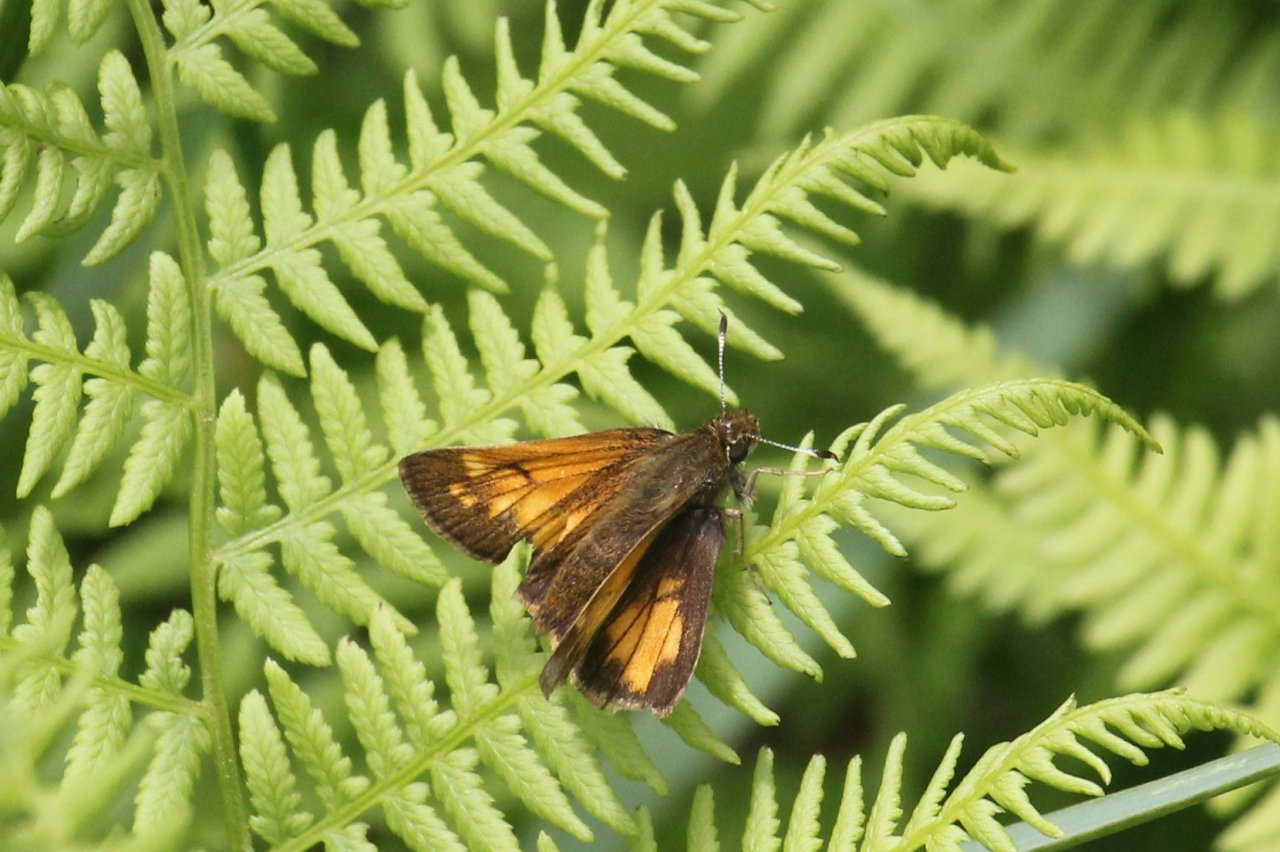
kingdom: Animalia
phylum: Arthropoda
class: Insecta
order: Lepidoptera
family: Hesperiidae
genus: Lon
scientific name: Lon hobomok
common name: Hobomok Skipper
